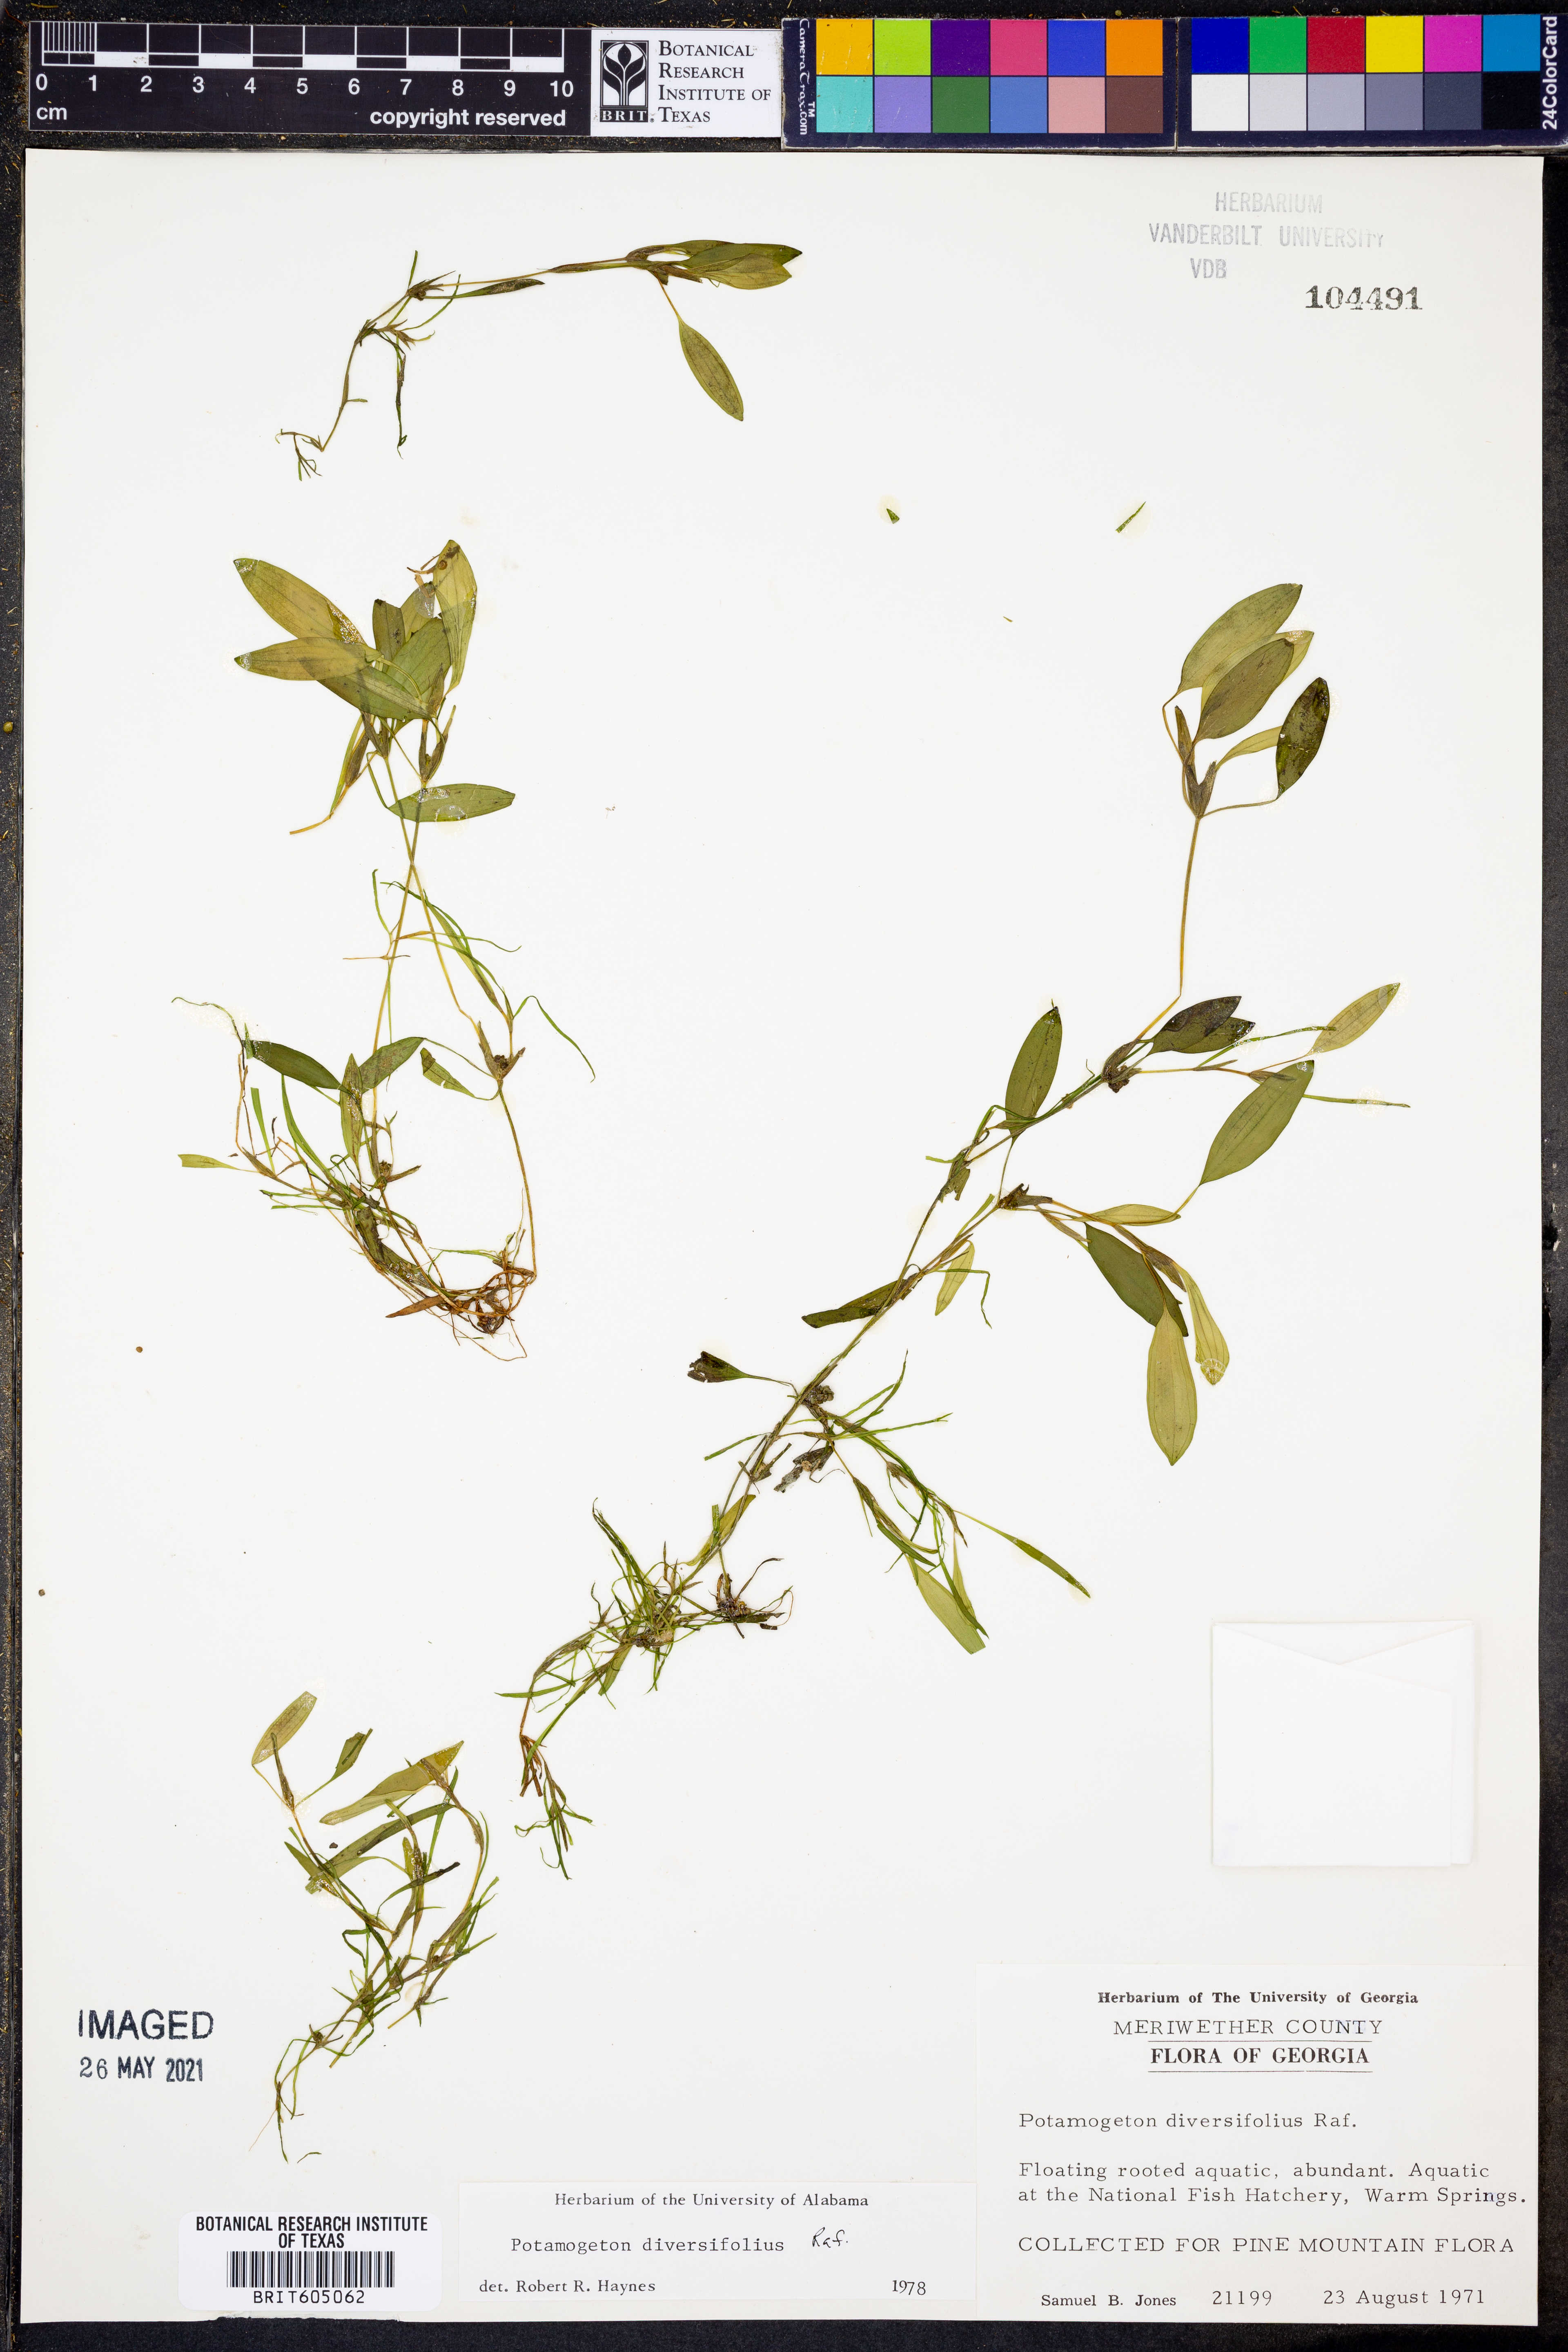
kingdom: Plantae
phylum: Tracheophyta
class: Liliopsida
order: Alismatales
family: Potamogetonaceae
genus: Potamogeton
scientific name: Potamogeton diversifolius
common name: Water-thread pondweed
